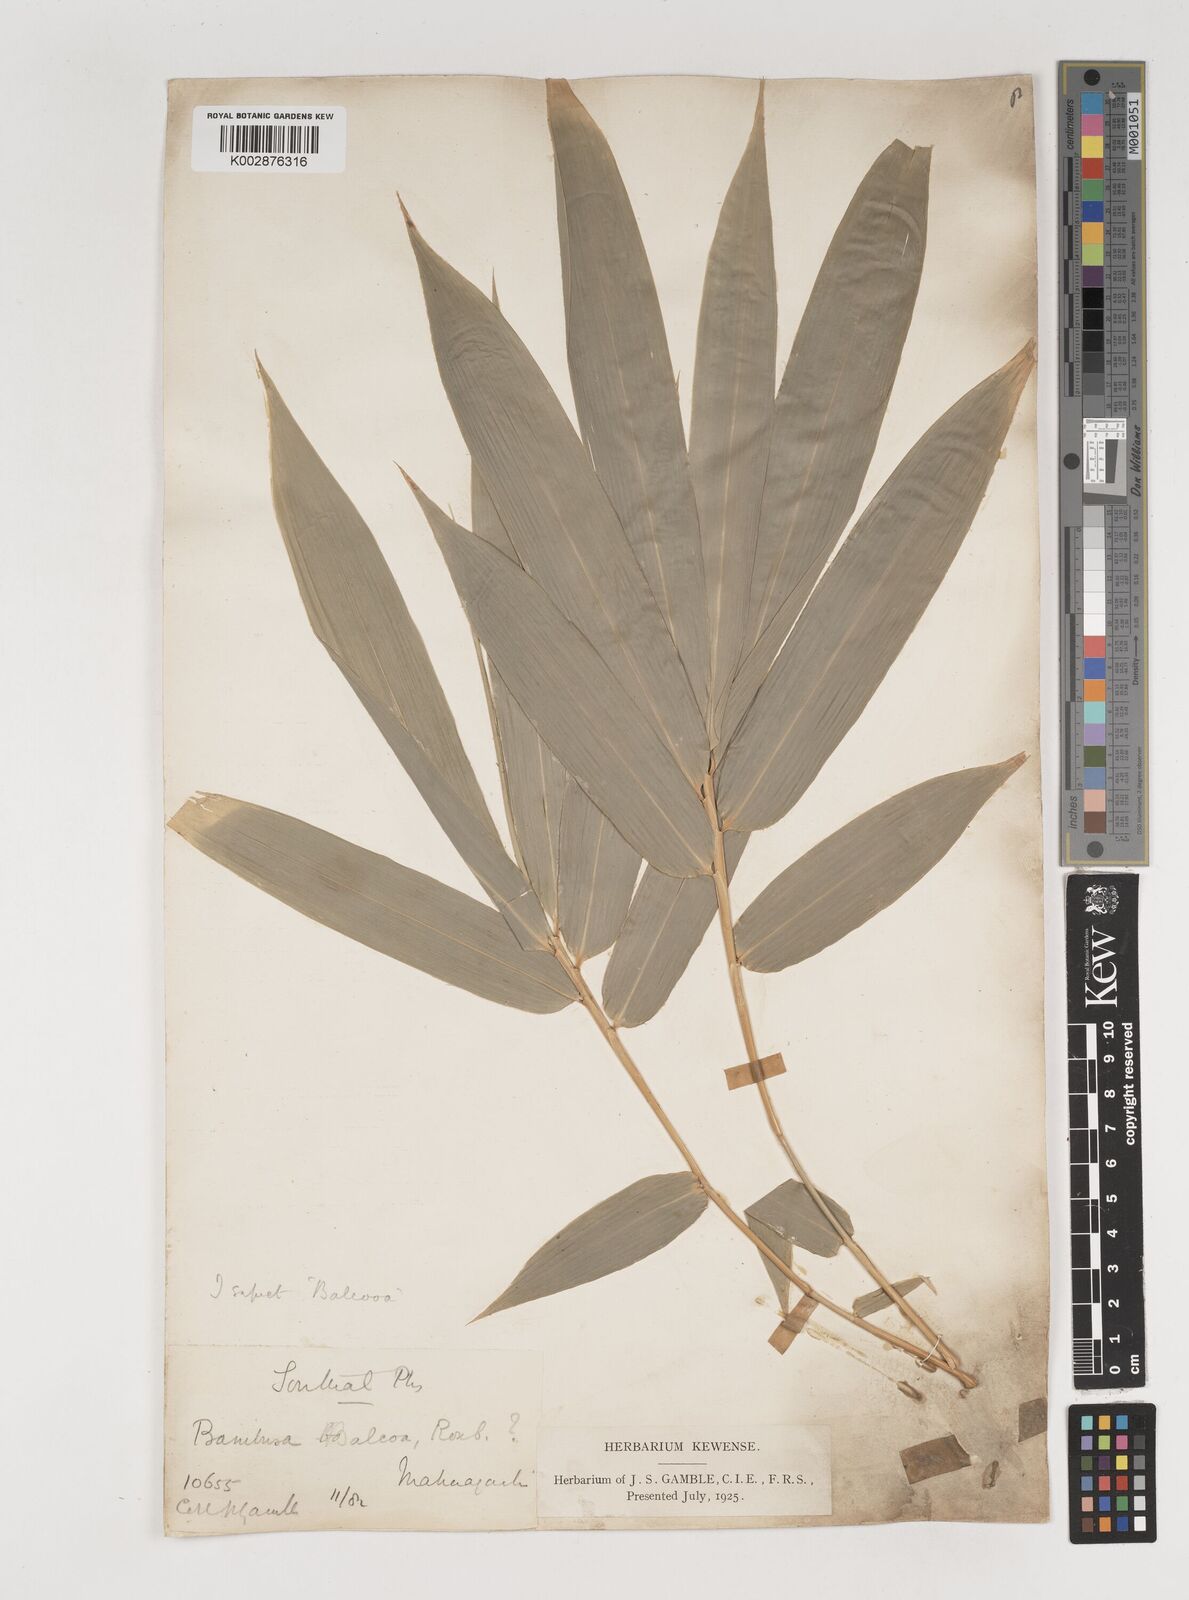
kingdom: Plantae
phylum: Tracheophyta
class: Liliopsida
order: Poales
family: Poaceae
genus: Bambusa
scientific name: Bambusa balcooa
